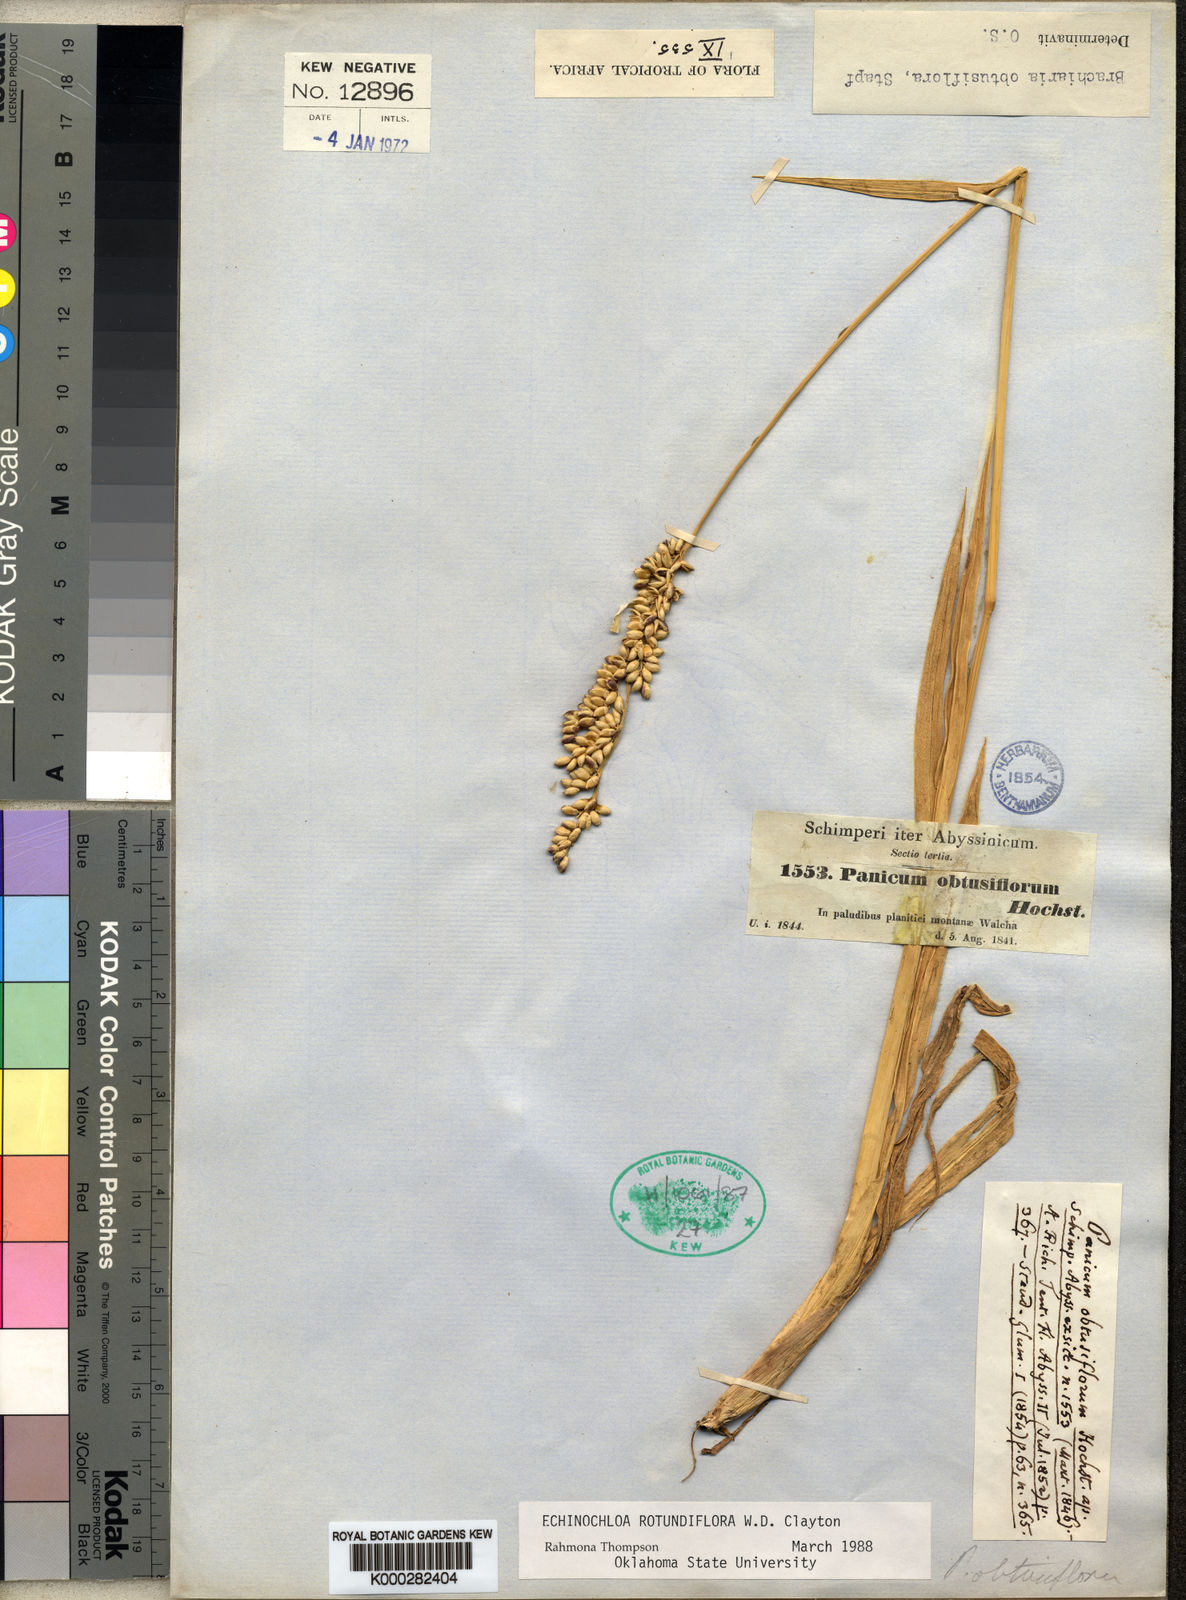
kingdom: Plantae
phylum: Tracheophyta
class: Liliopsida
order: Poales
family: Poaceae
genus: Echinochloa
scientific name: Echinochloa rotundiflora
